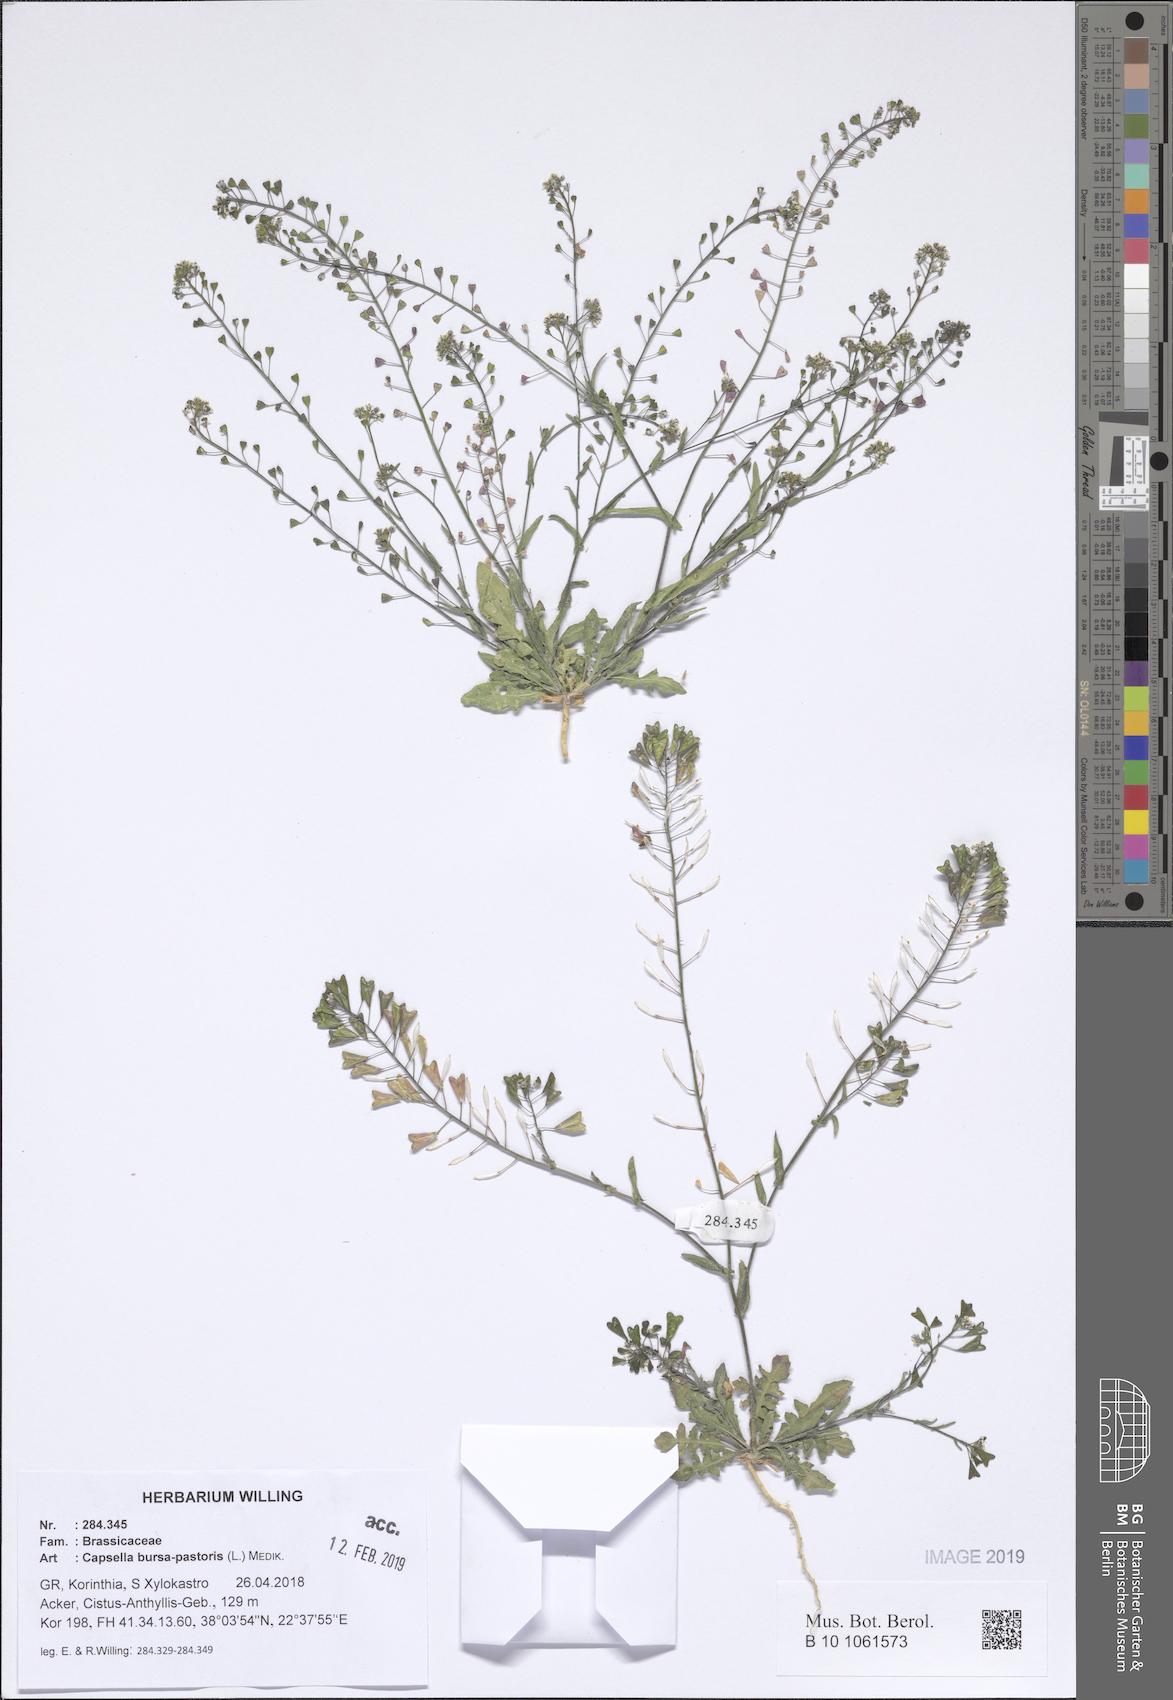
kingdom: Plantae
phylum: Tracheophyta
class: Magnoliopsida
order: Brassicales
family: Brassicaceae
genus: Capsella
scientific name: Capsella bursa-pastoris
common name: Shepherd's purse
